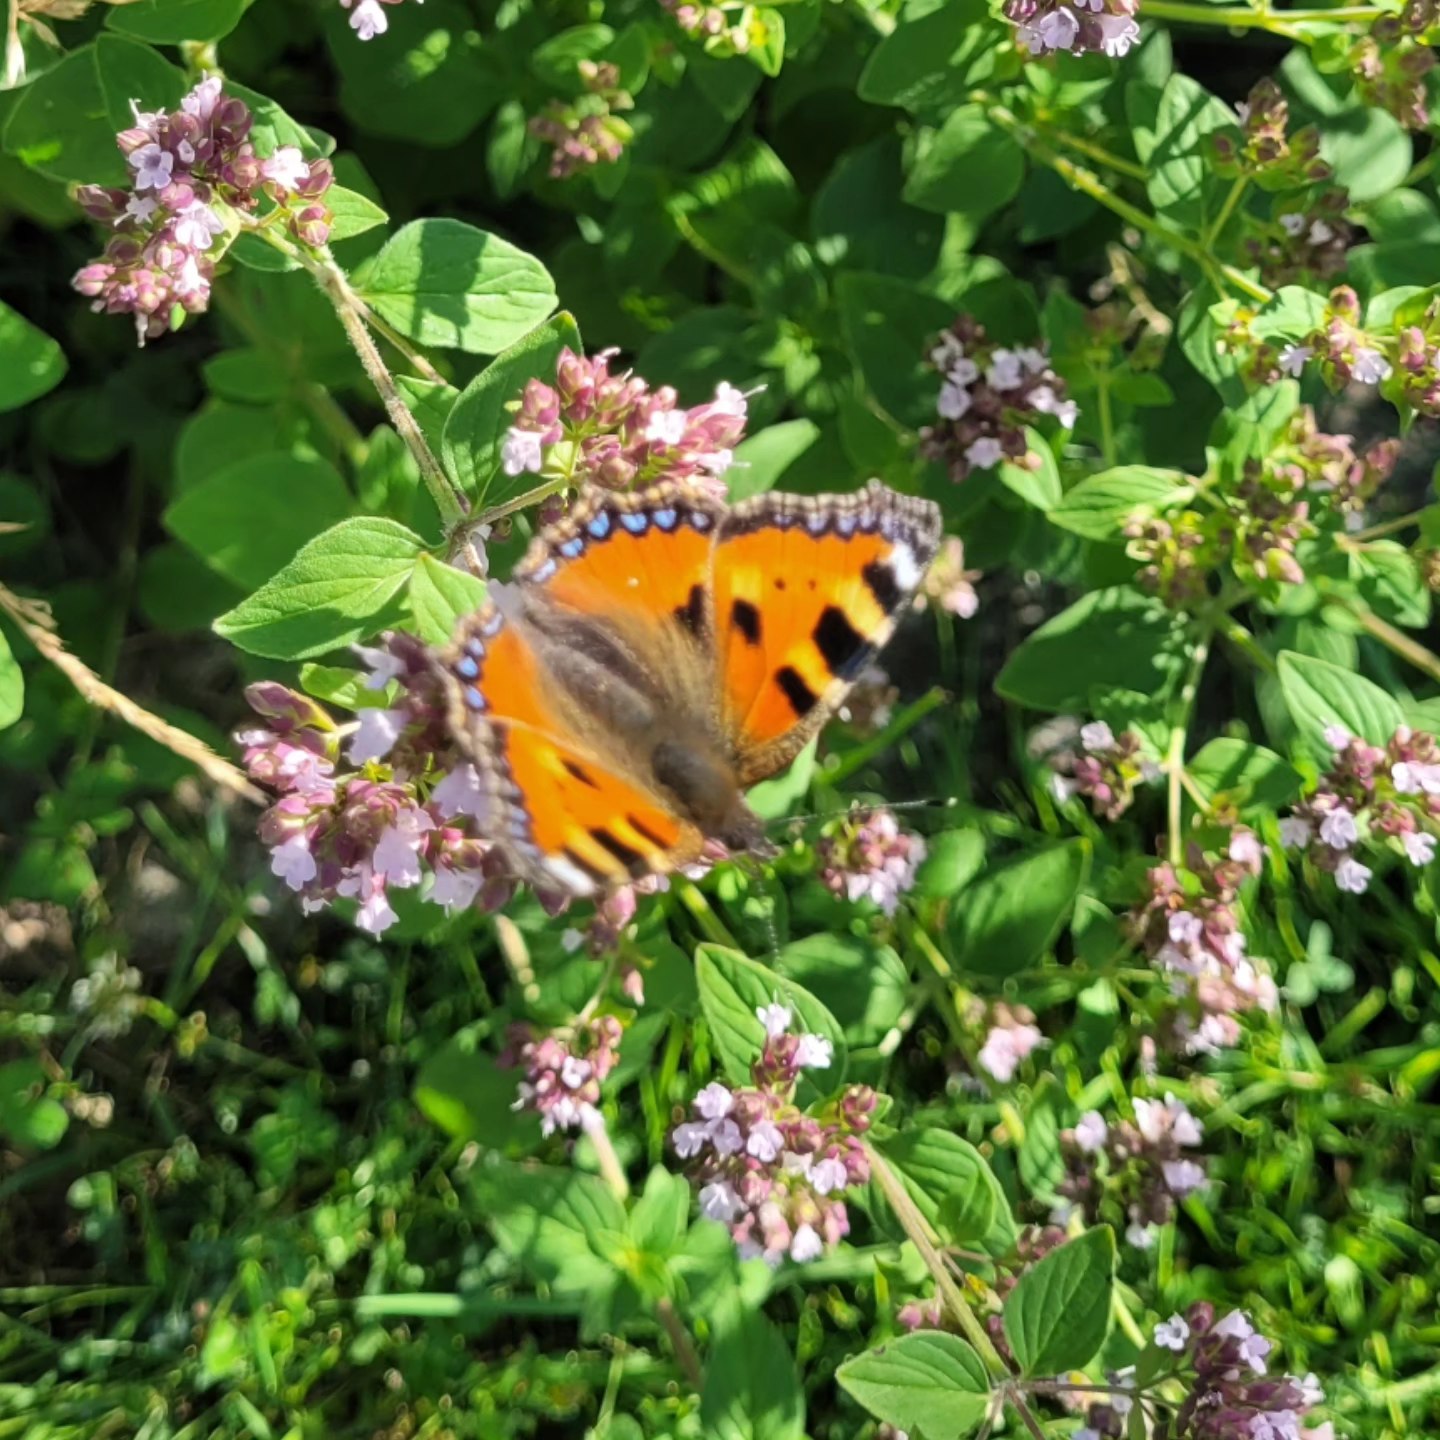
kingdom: Animalia
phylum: Arthropoda
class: Insecta
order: Lepidoptera
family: Nymphalidae
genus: Aglais
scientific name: Aglais urticae
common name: Nældens takvinge
